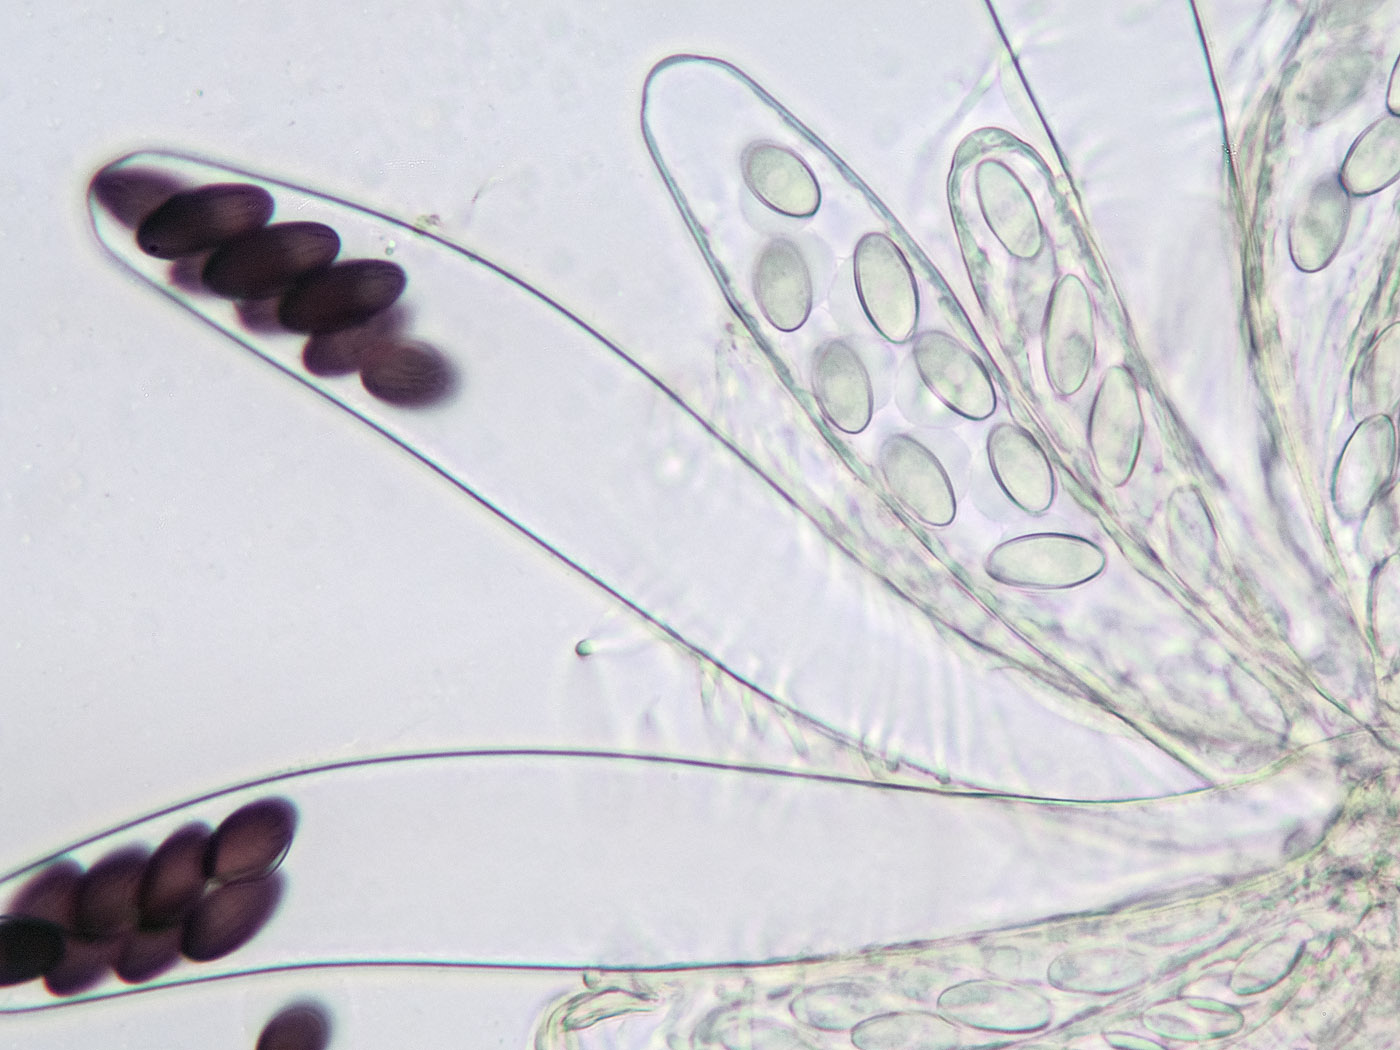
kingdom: Fungi
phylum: Ascomycota
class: Pezizomycetes
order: Pezizales
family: Ascobolaceae
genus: Ascobolus
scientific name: Ascobolus albidus
